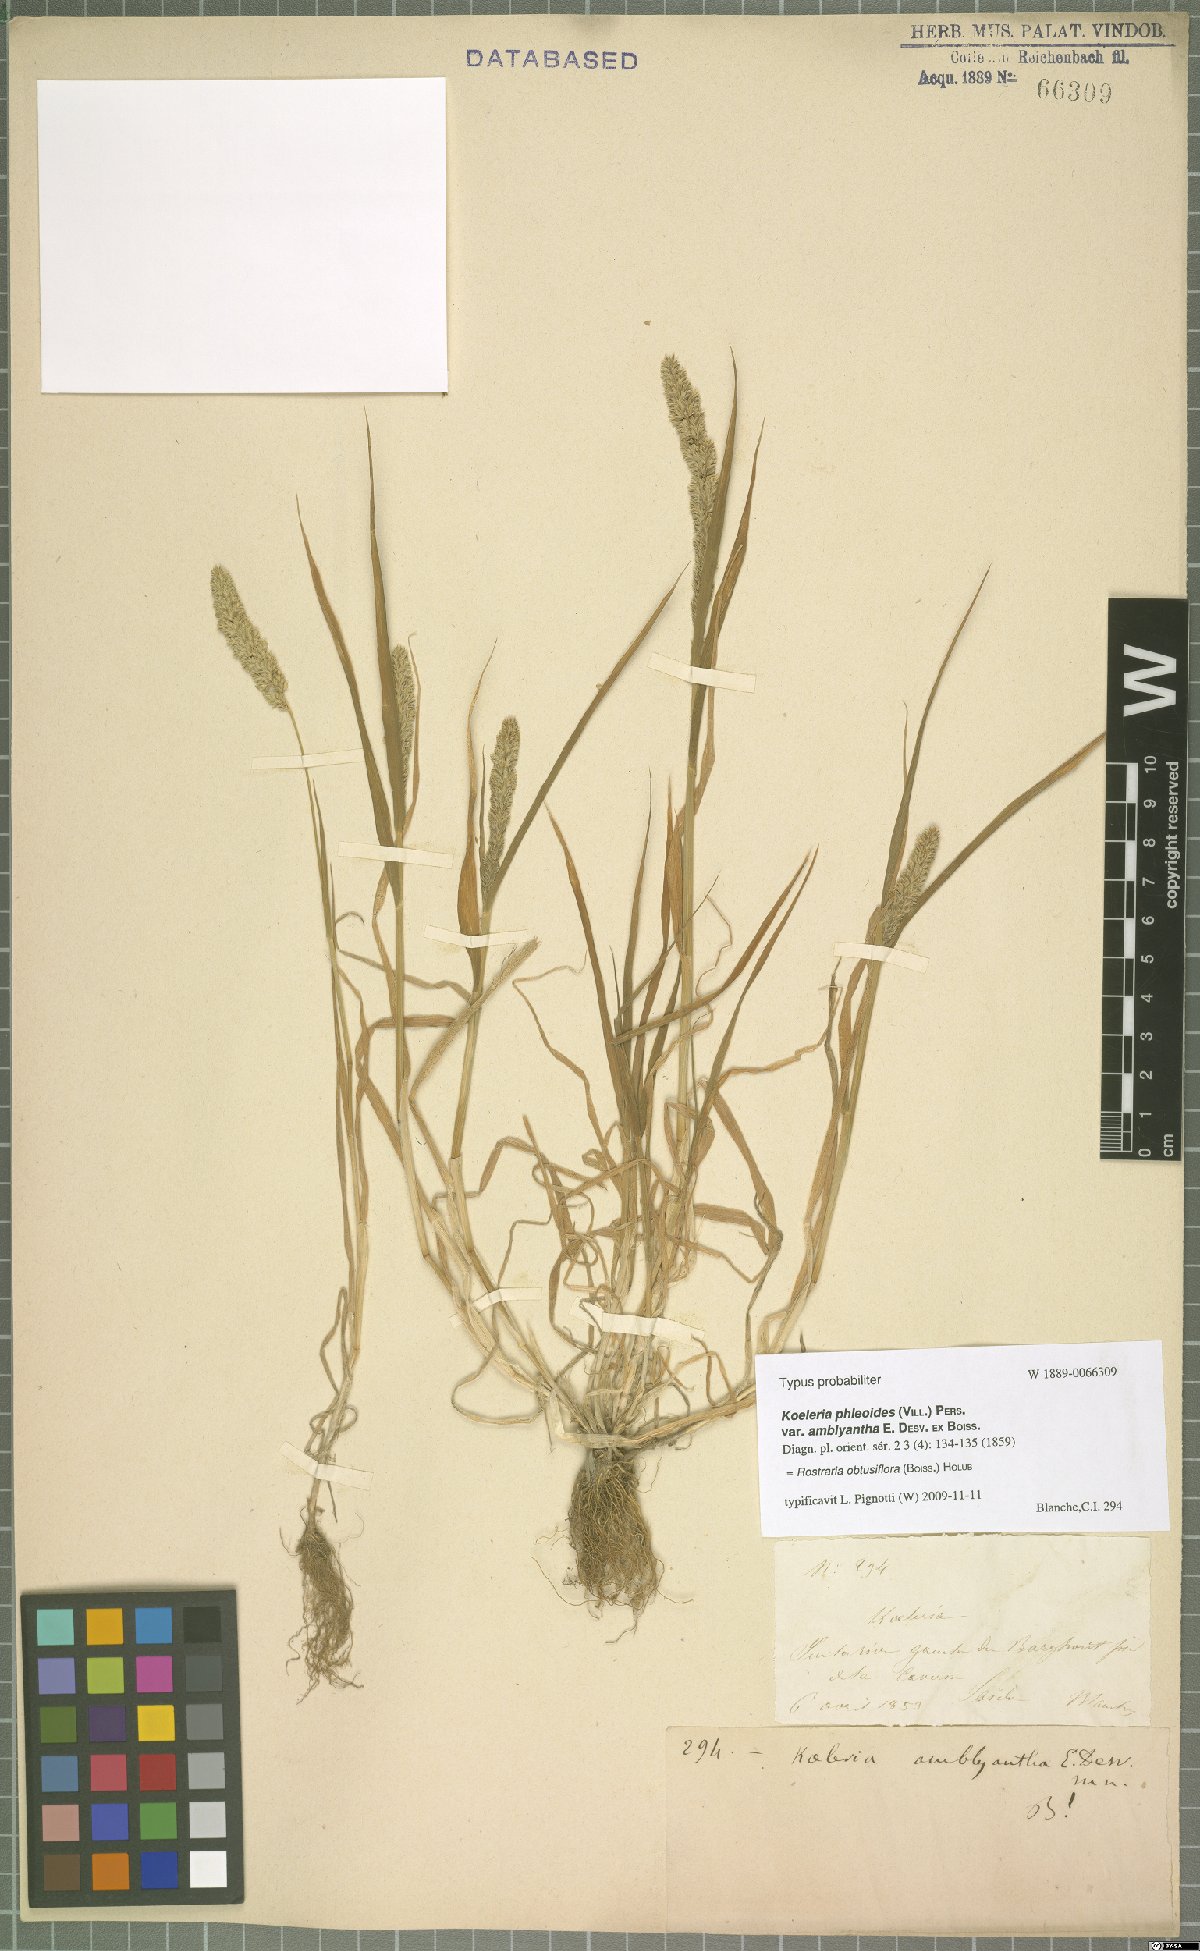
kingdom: Plantae
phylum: Tracheophyta
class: Liliopsida
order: Poales
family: Poaceae
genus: Rostraria
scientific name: Rostraria obtusiflora
